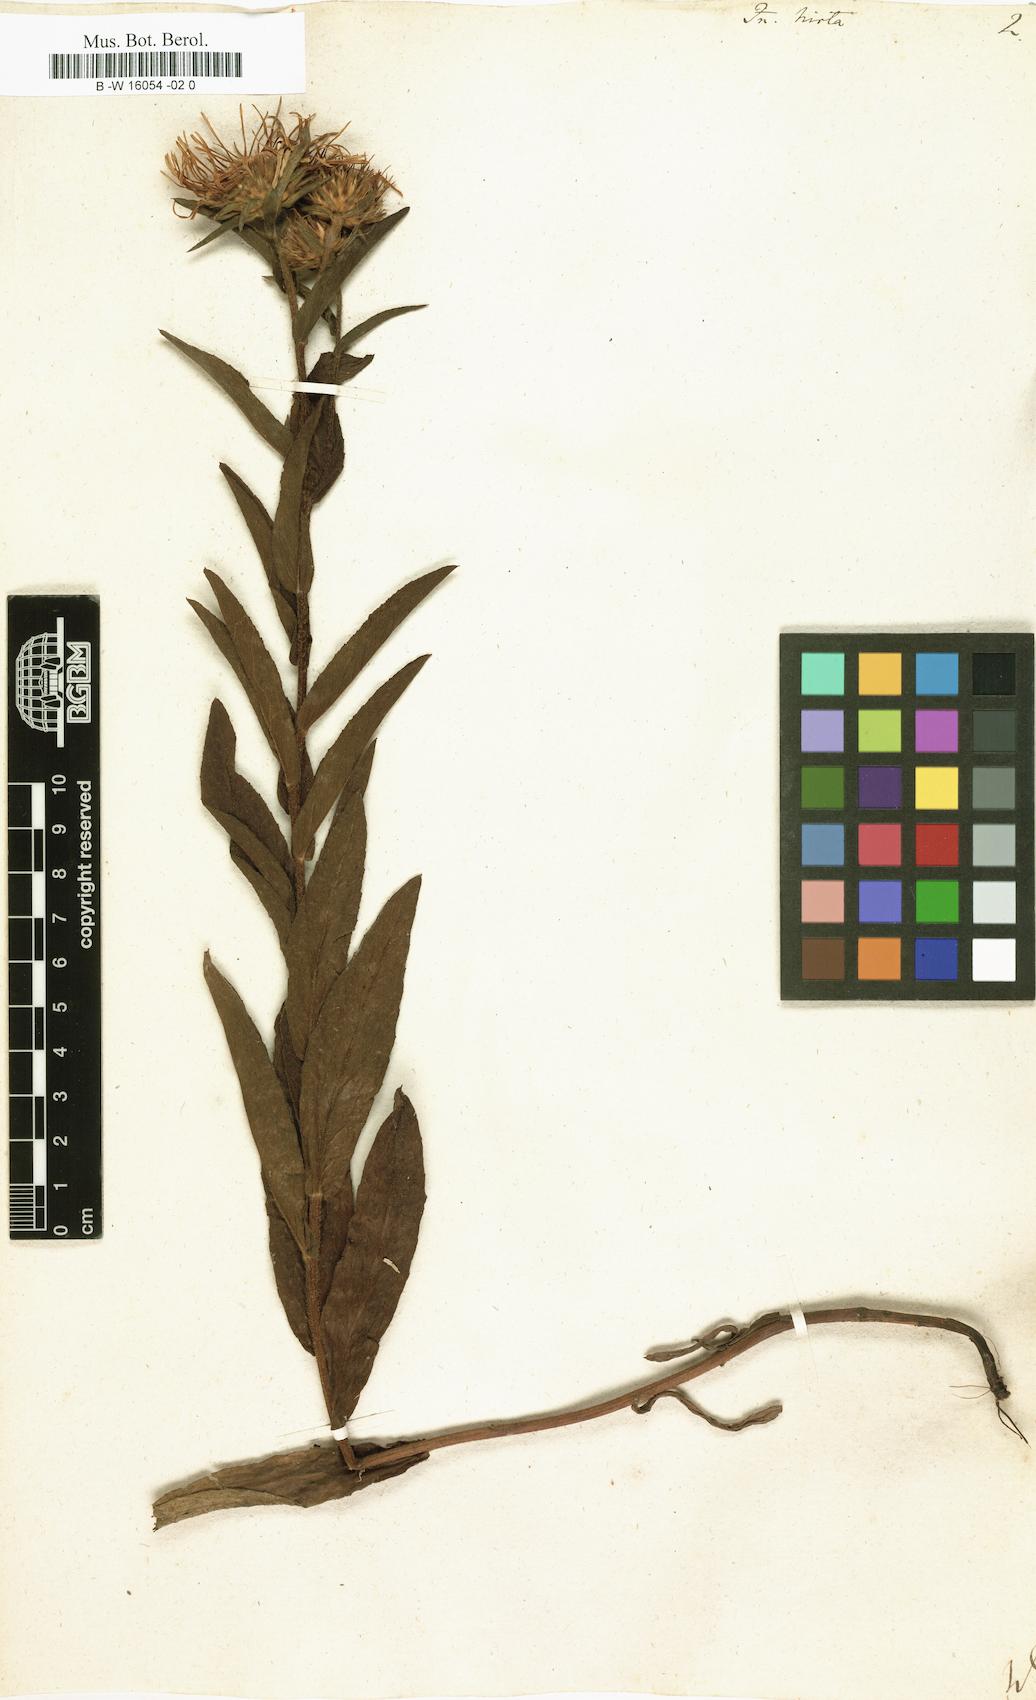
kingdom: Plantae
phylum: Tracheophyta
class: Magnoliopsida
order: Asterales
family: Asteraceae
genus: Pentanema
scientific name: Pentanema hirtum
